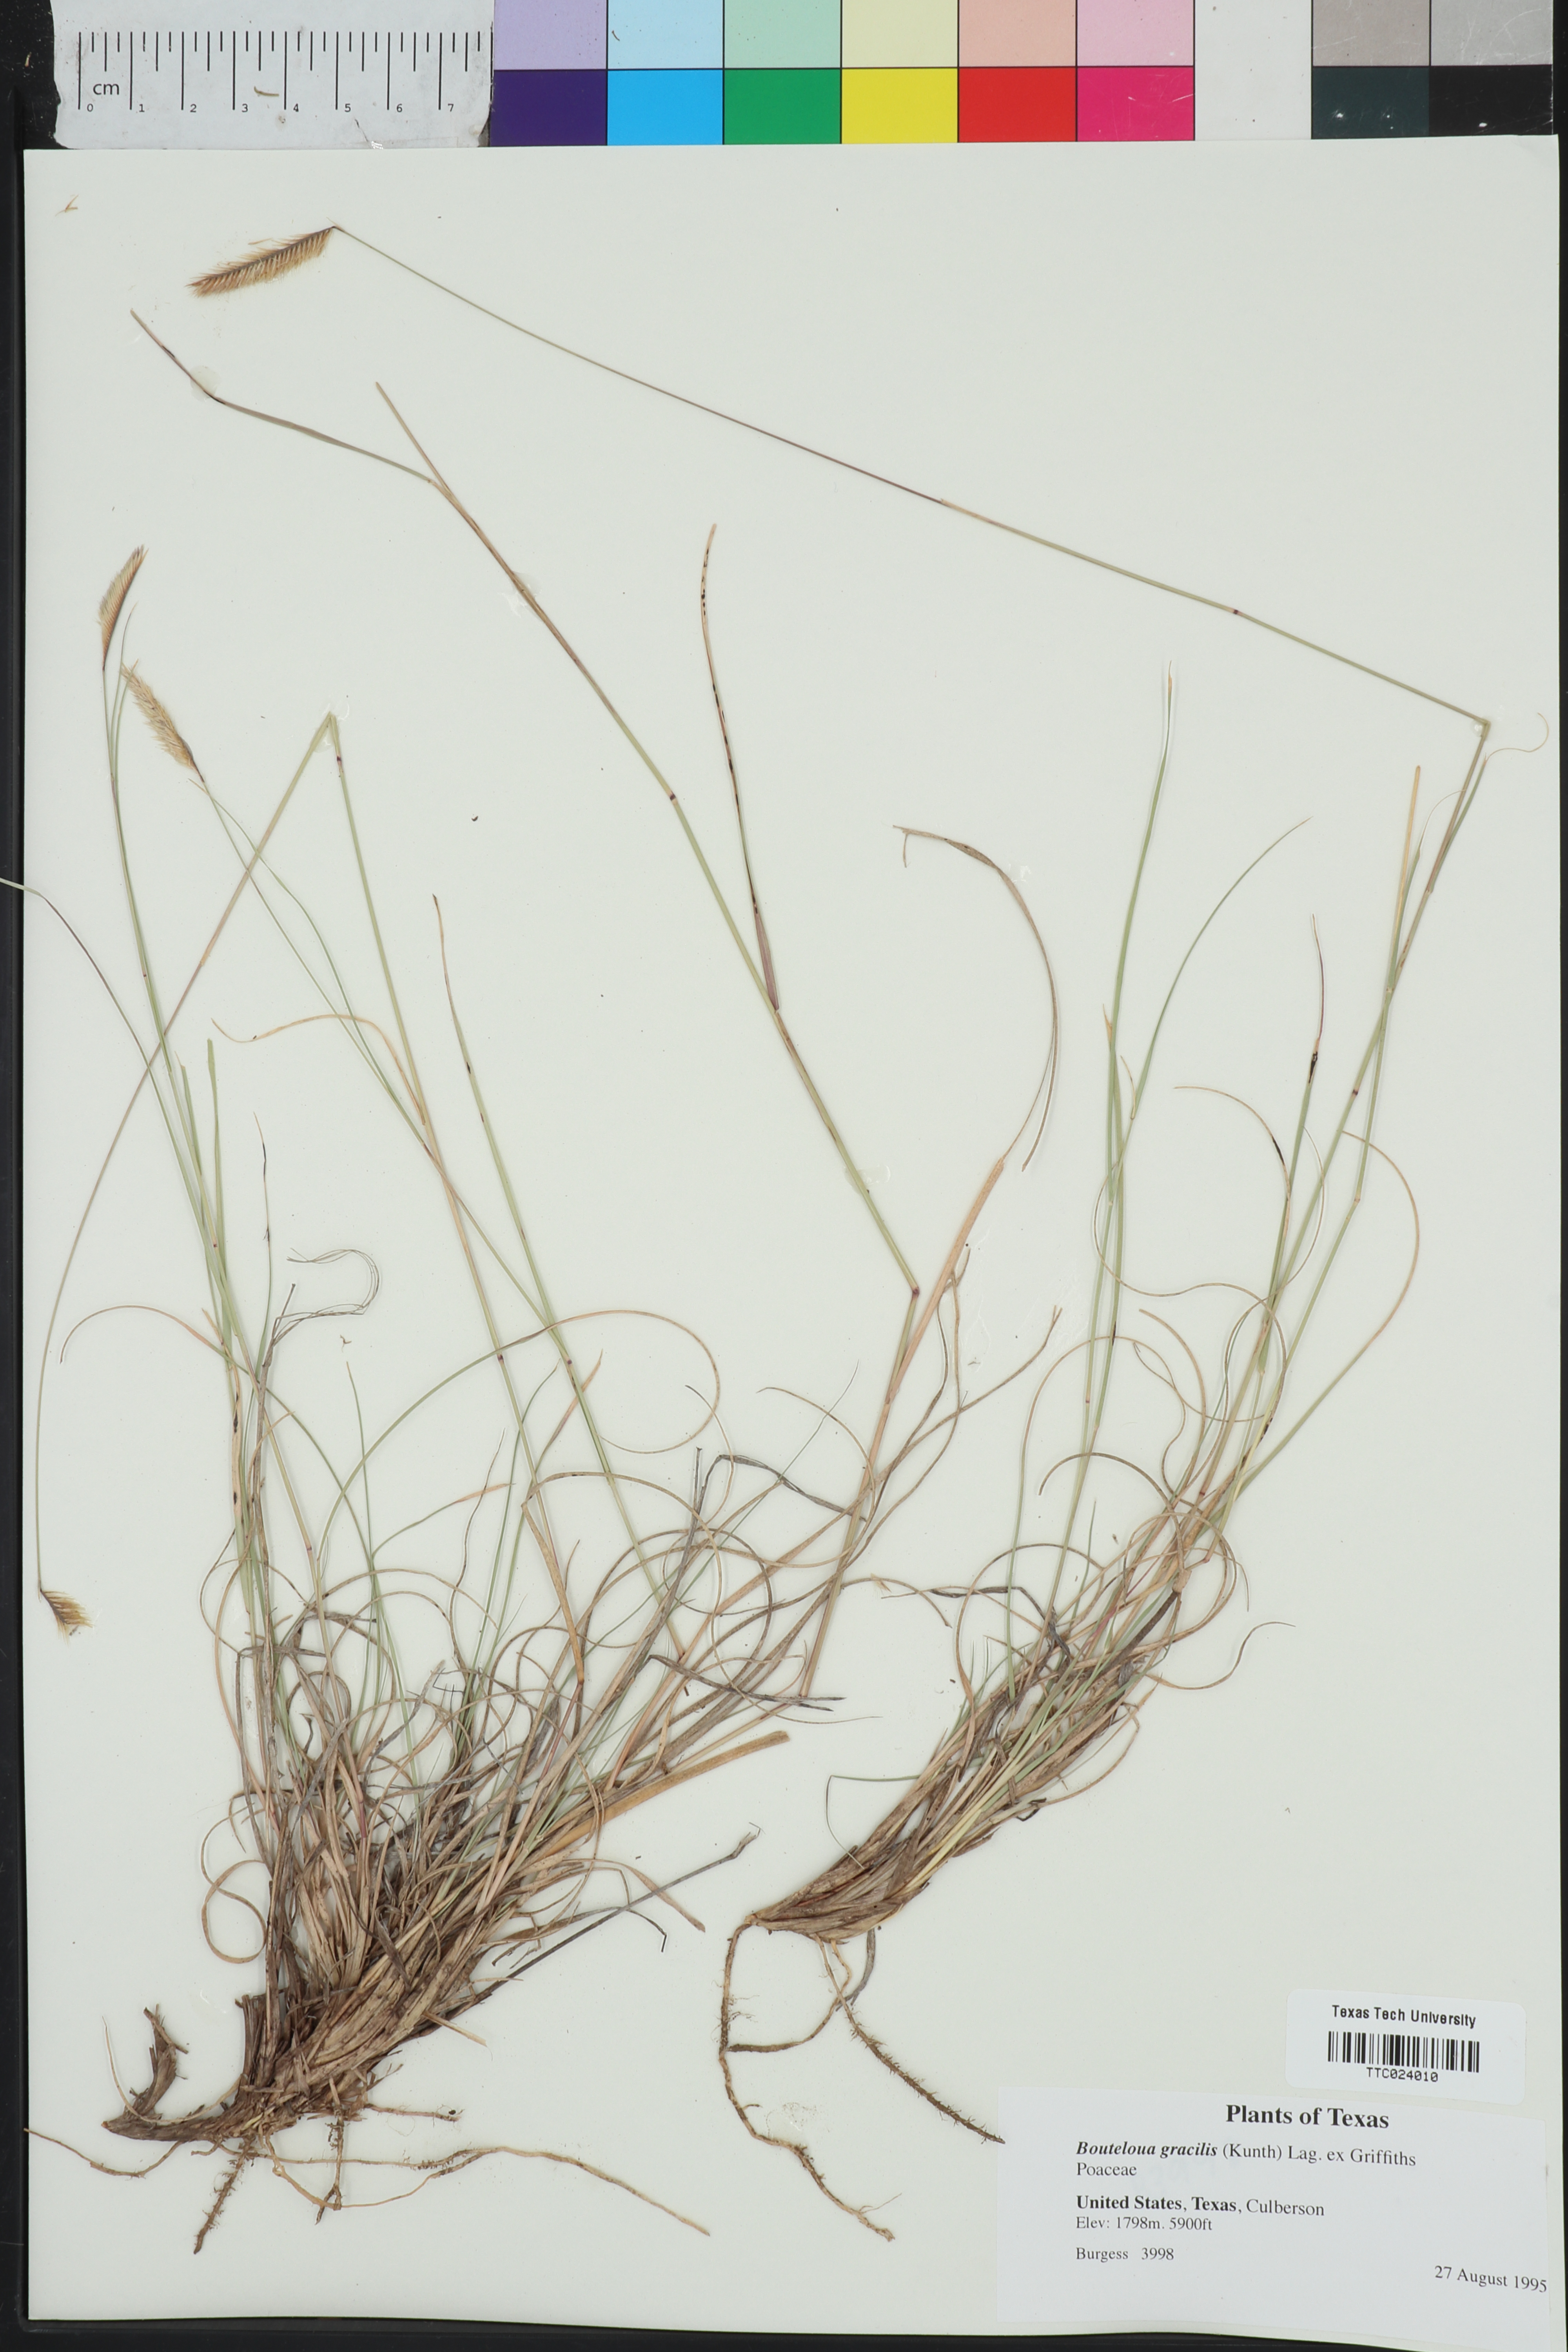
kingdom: Plantae
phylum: Tracheophyta
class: Liliopsida
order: Poales
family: Poaceae
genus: Bouteloua
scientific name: Bouteloua gracilis
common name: Blue grama
